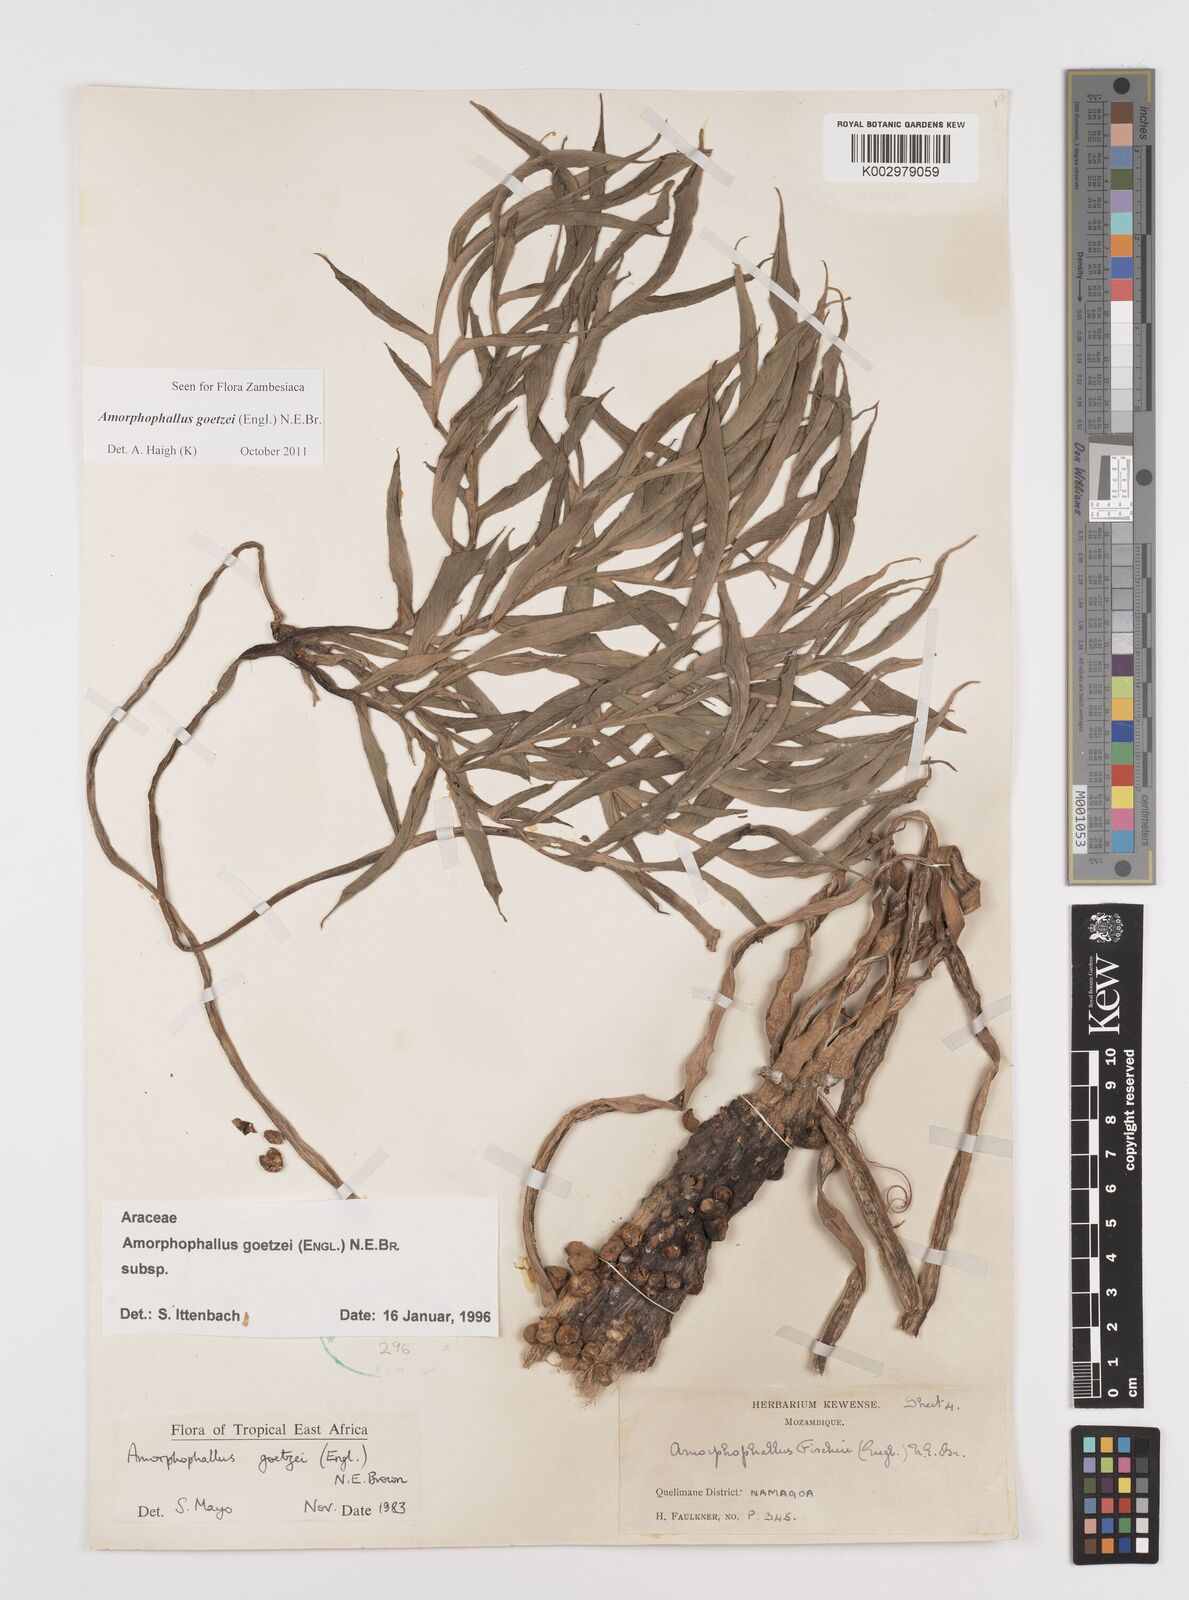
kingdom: Plantae
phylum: Tracheophyta
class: Liliopsida
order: Alismatales
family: Araceae
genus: Amorphophallus
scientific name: Amorphophallus goetzei
